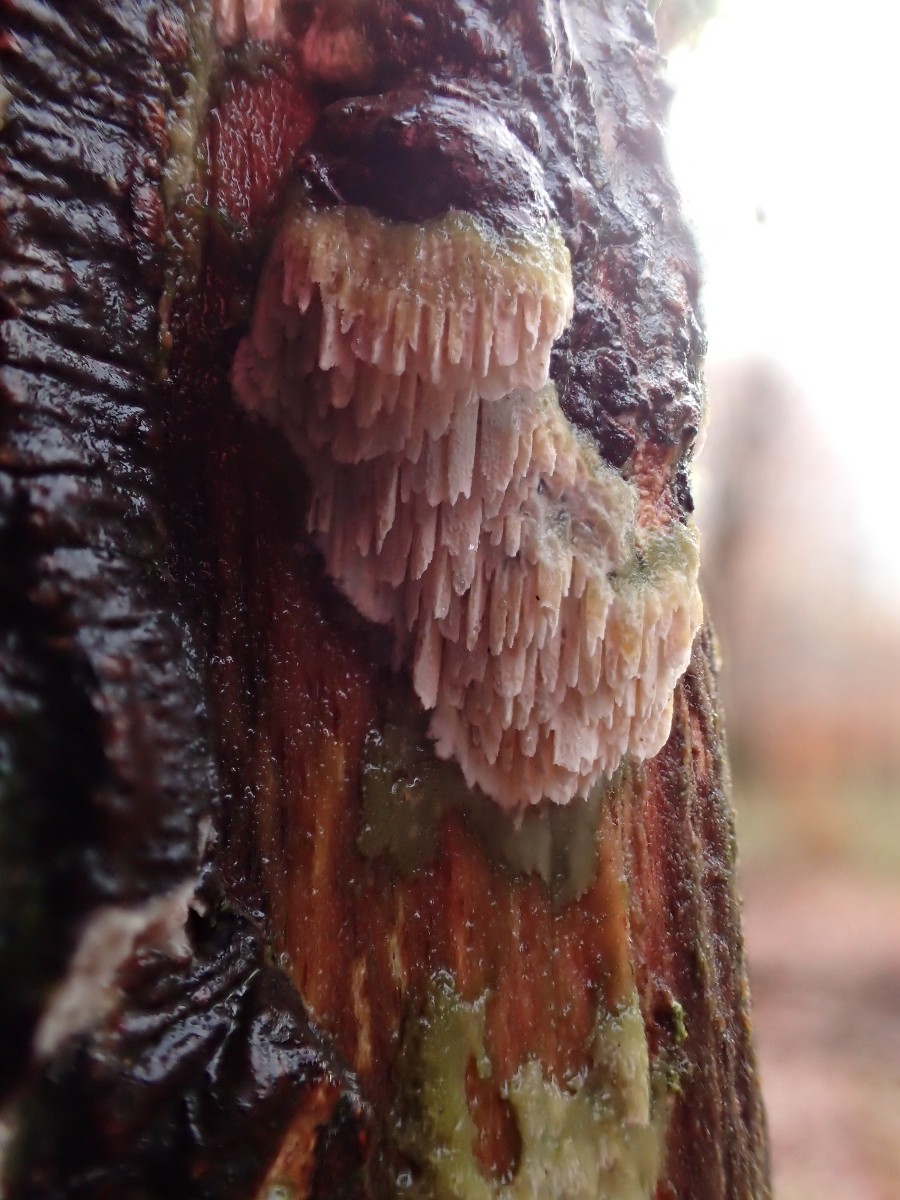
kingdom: Fungi
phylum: Basidiomycota
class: Agaricomycetes
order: Hymenochaetales
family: Schizoporaceae
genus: Schizopora
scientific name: Schizopora paradoxa
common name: hvid tandsvamp
